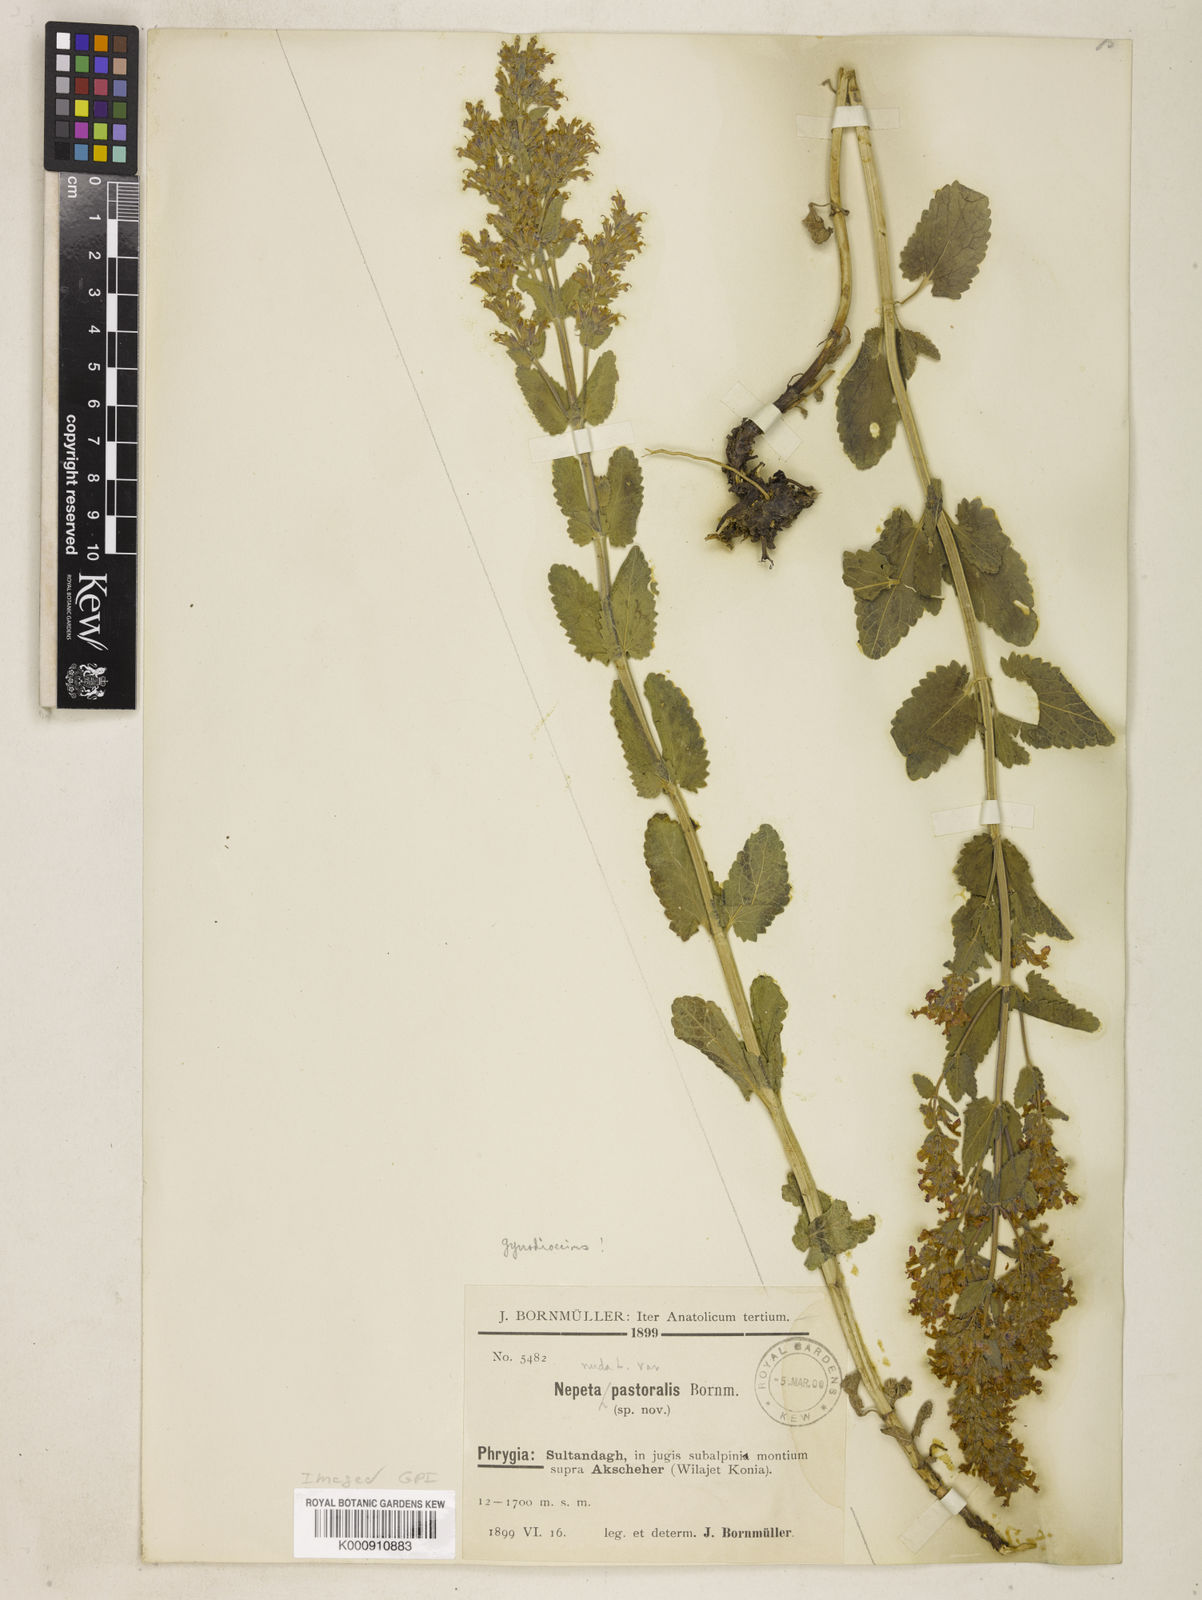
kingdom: Plantae
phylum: Tracheophyta
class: Magnoliopsida
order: Lamiales
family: Lamiaceae
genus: Nepeta
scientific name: Nepeta nuda
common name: Hairless catmint
